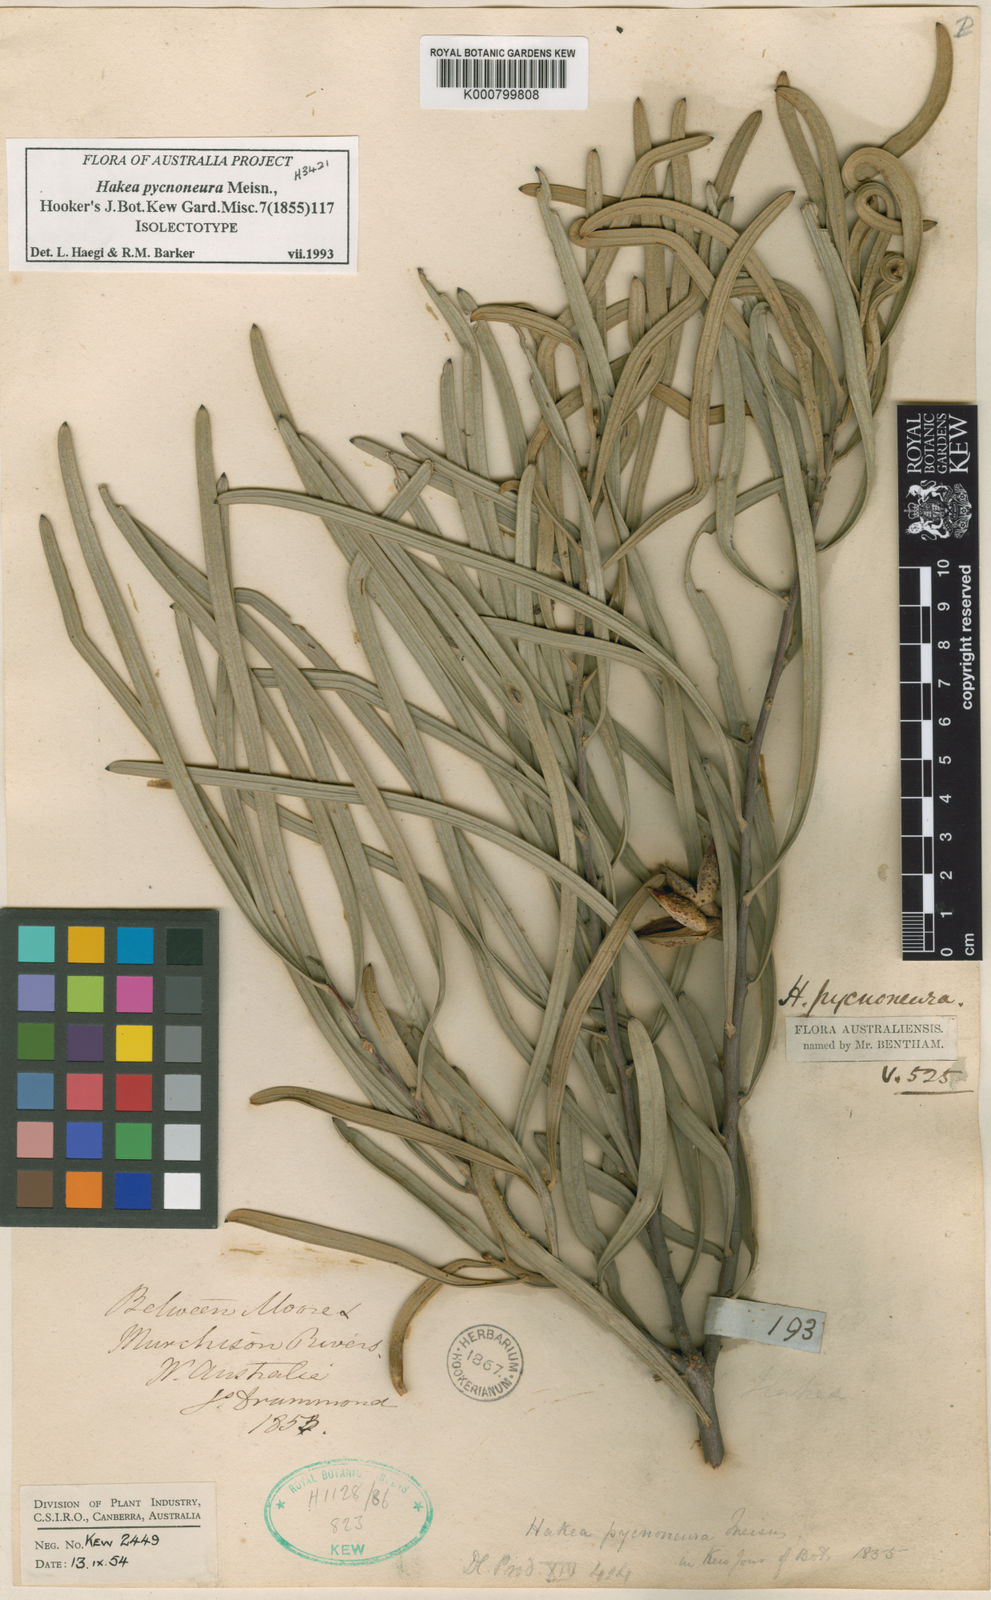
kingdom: Plantae
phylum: Tracheophyta
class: Magnoliopsida
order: Proteales
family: Proteaceae
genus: Hakea
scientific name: Hakea pycnoneura
